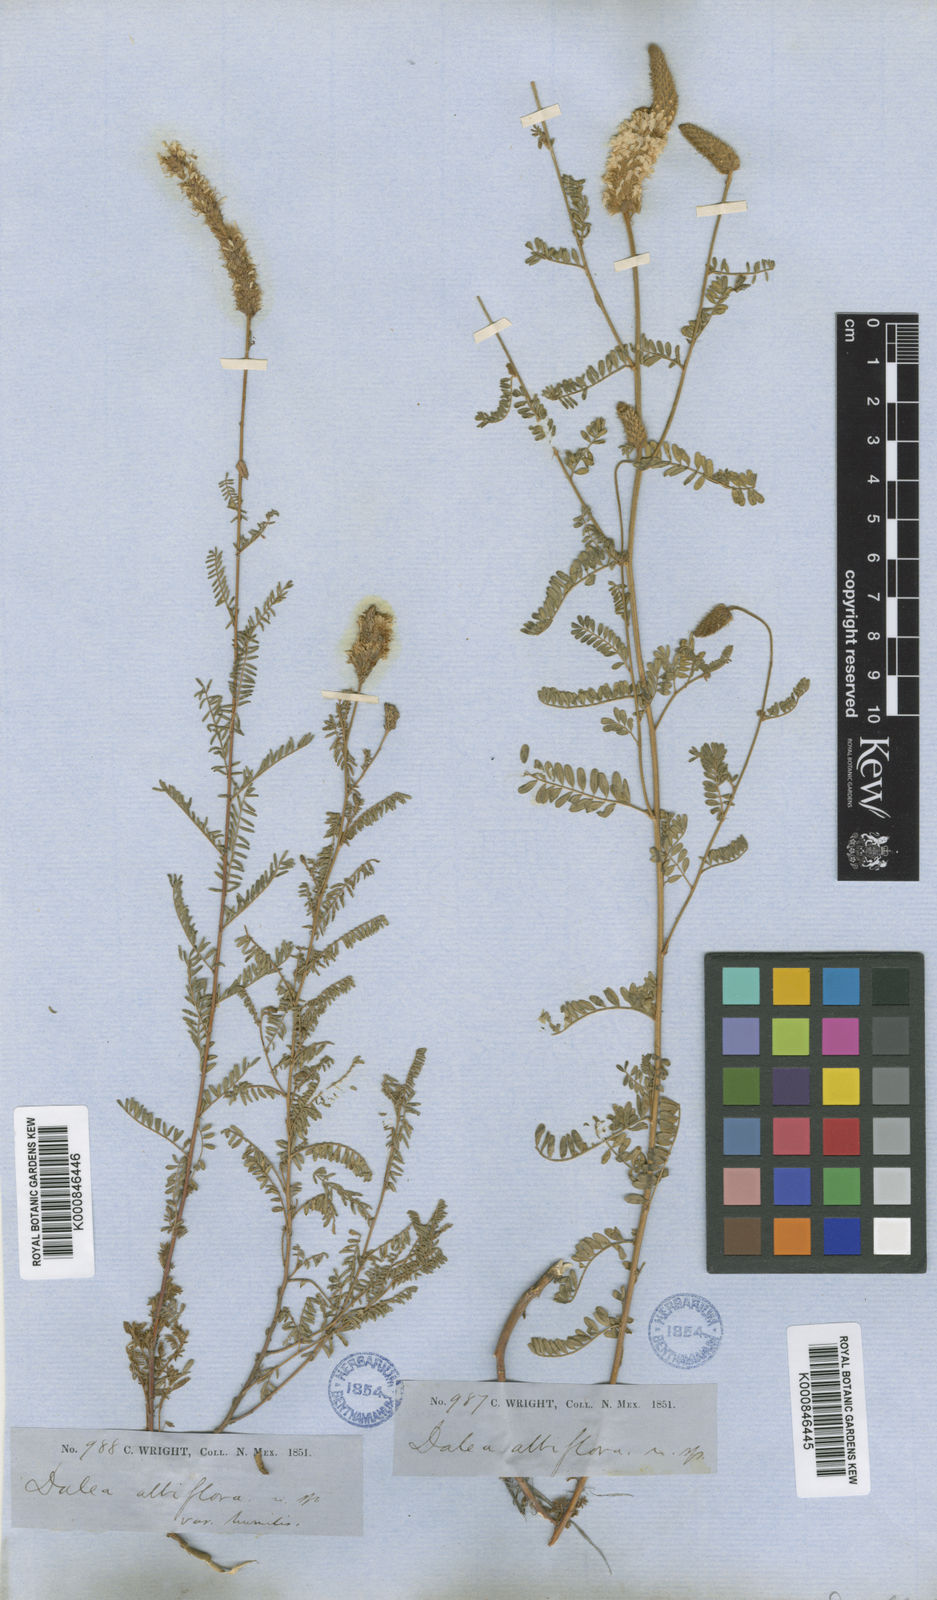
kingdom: Plantae
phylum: Tracheophyta
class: Magnoliopsida
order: Fabales
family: Fabaceae
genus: Dalea
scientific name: Dalea albiflora
